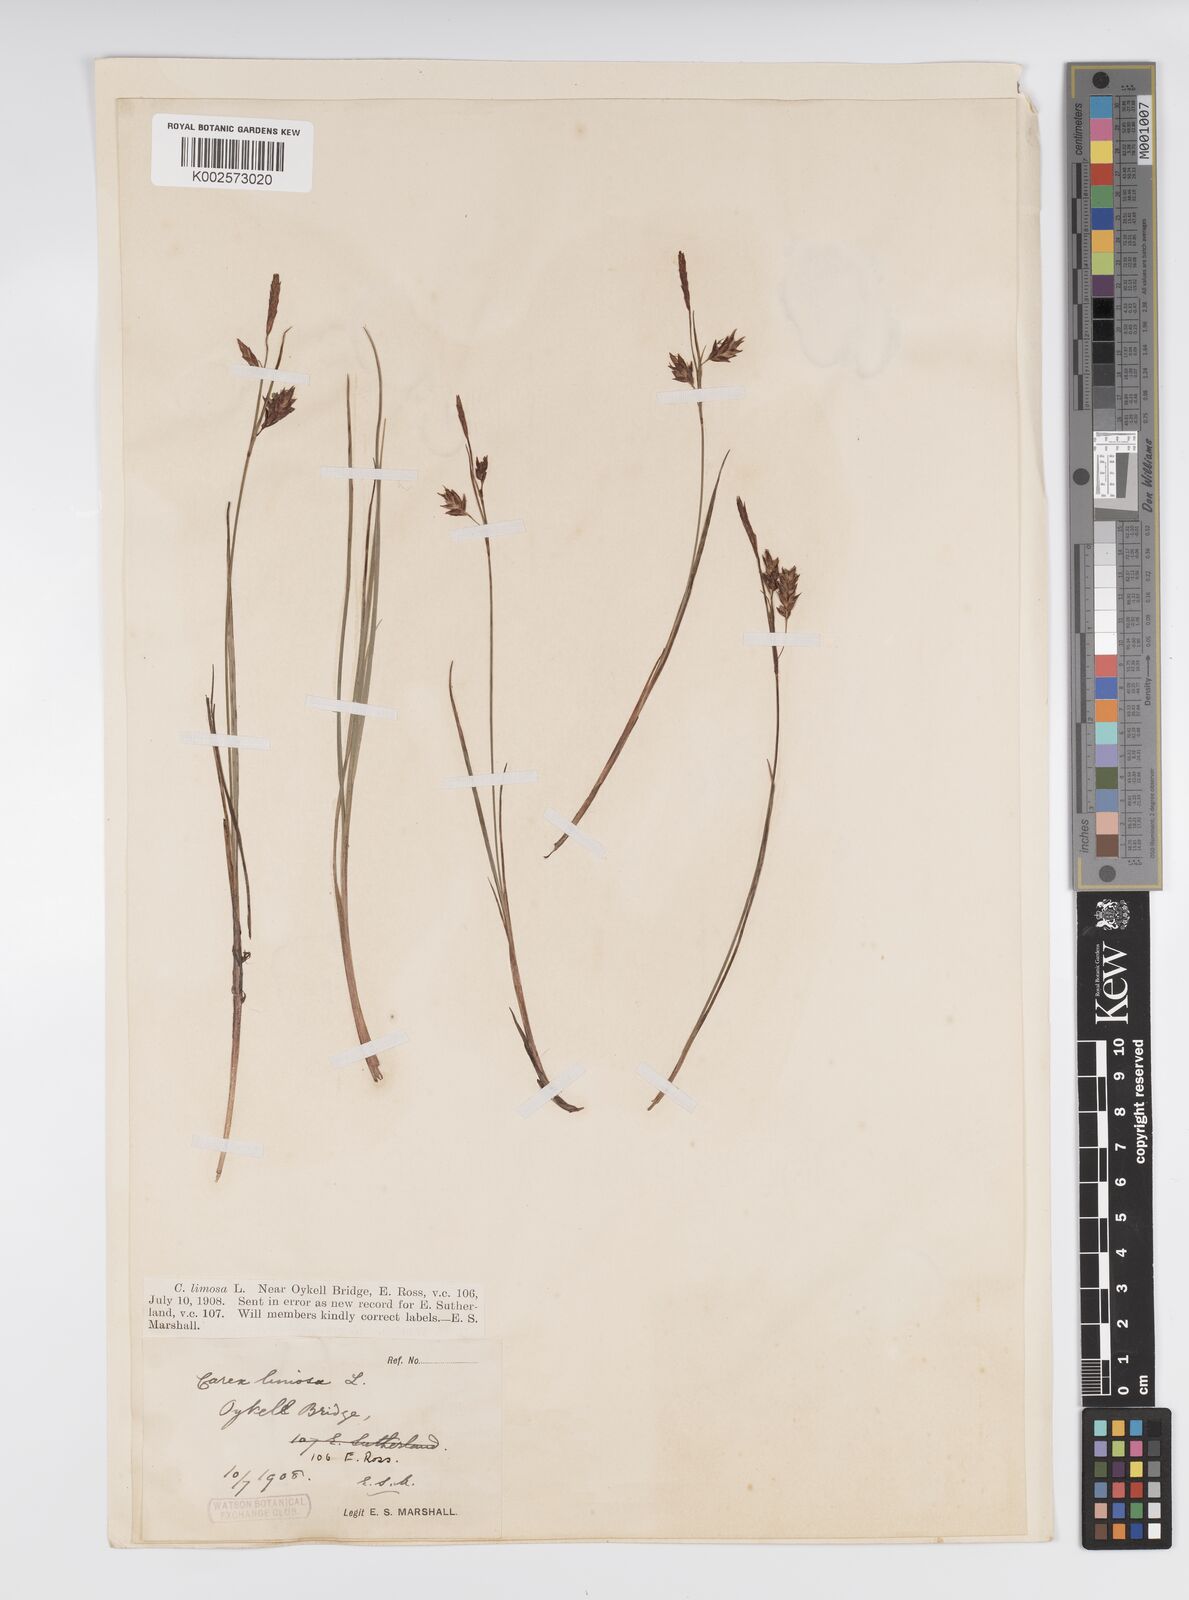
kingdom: Plantae
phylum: Tracheophyta
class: Liliopsida
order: Poales
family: Cyperaceae
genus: Carex
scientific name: Carex limosa
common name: Bog sedge
